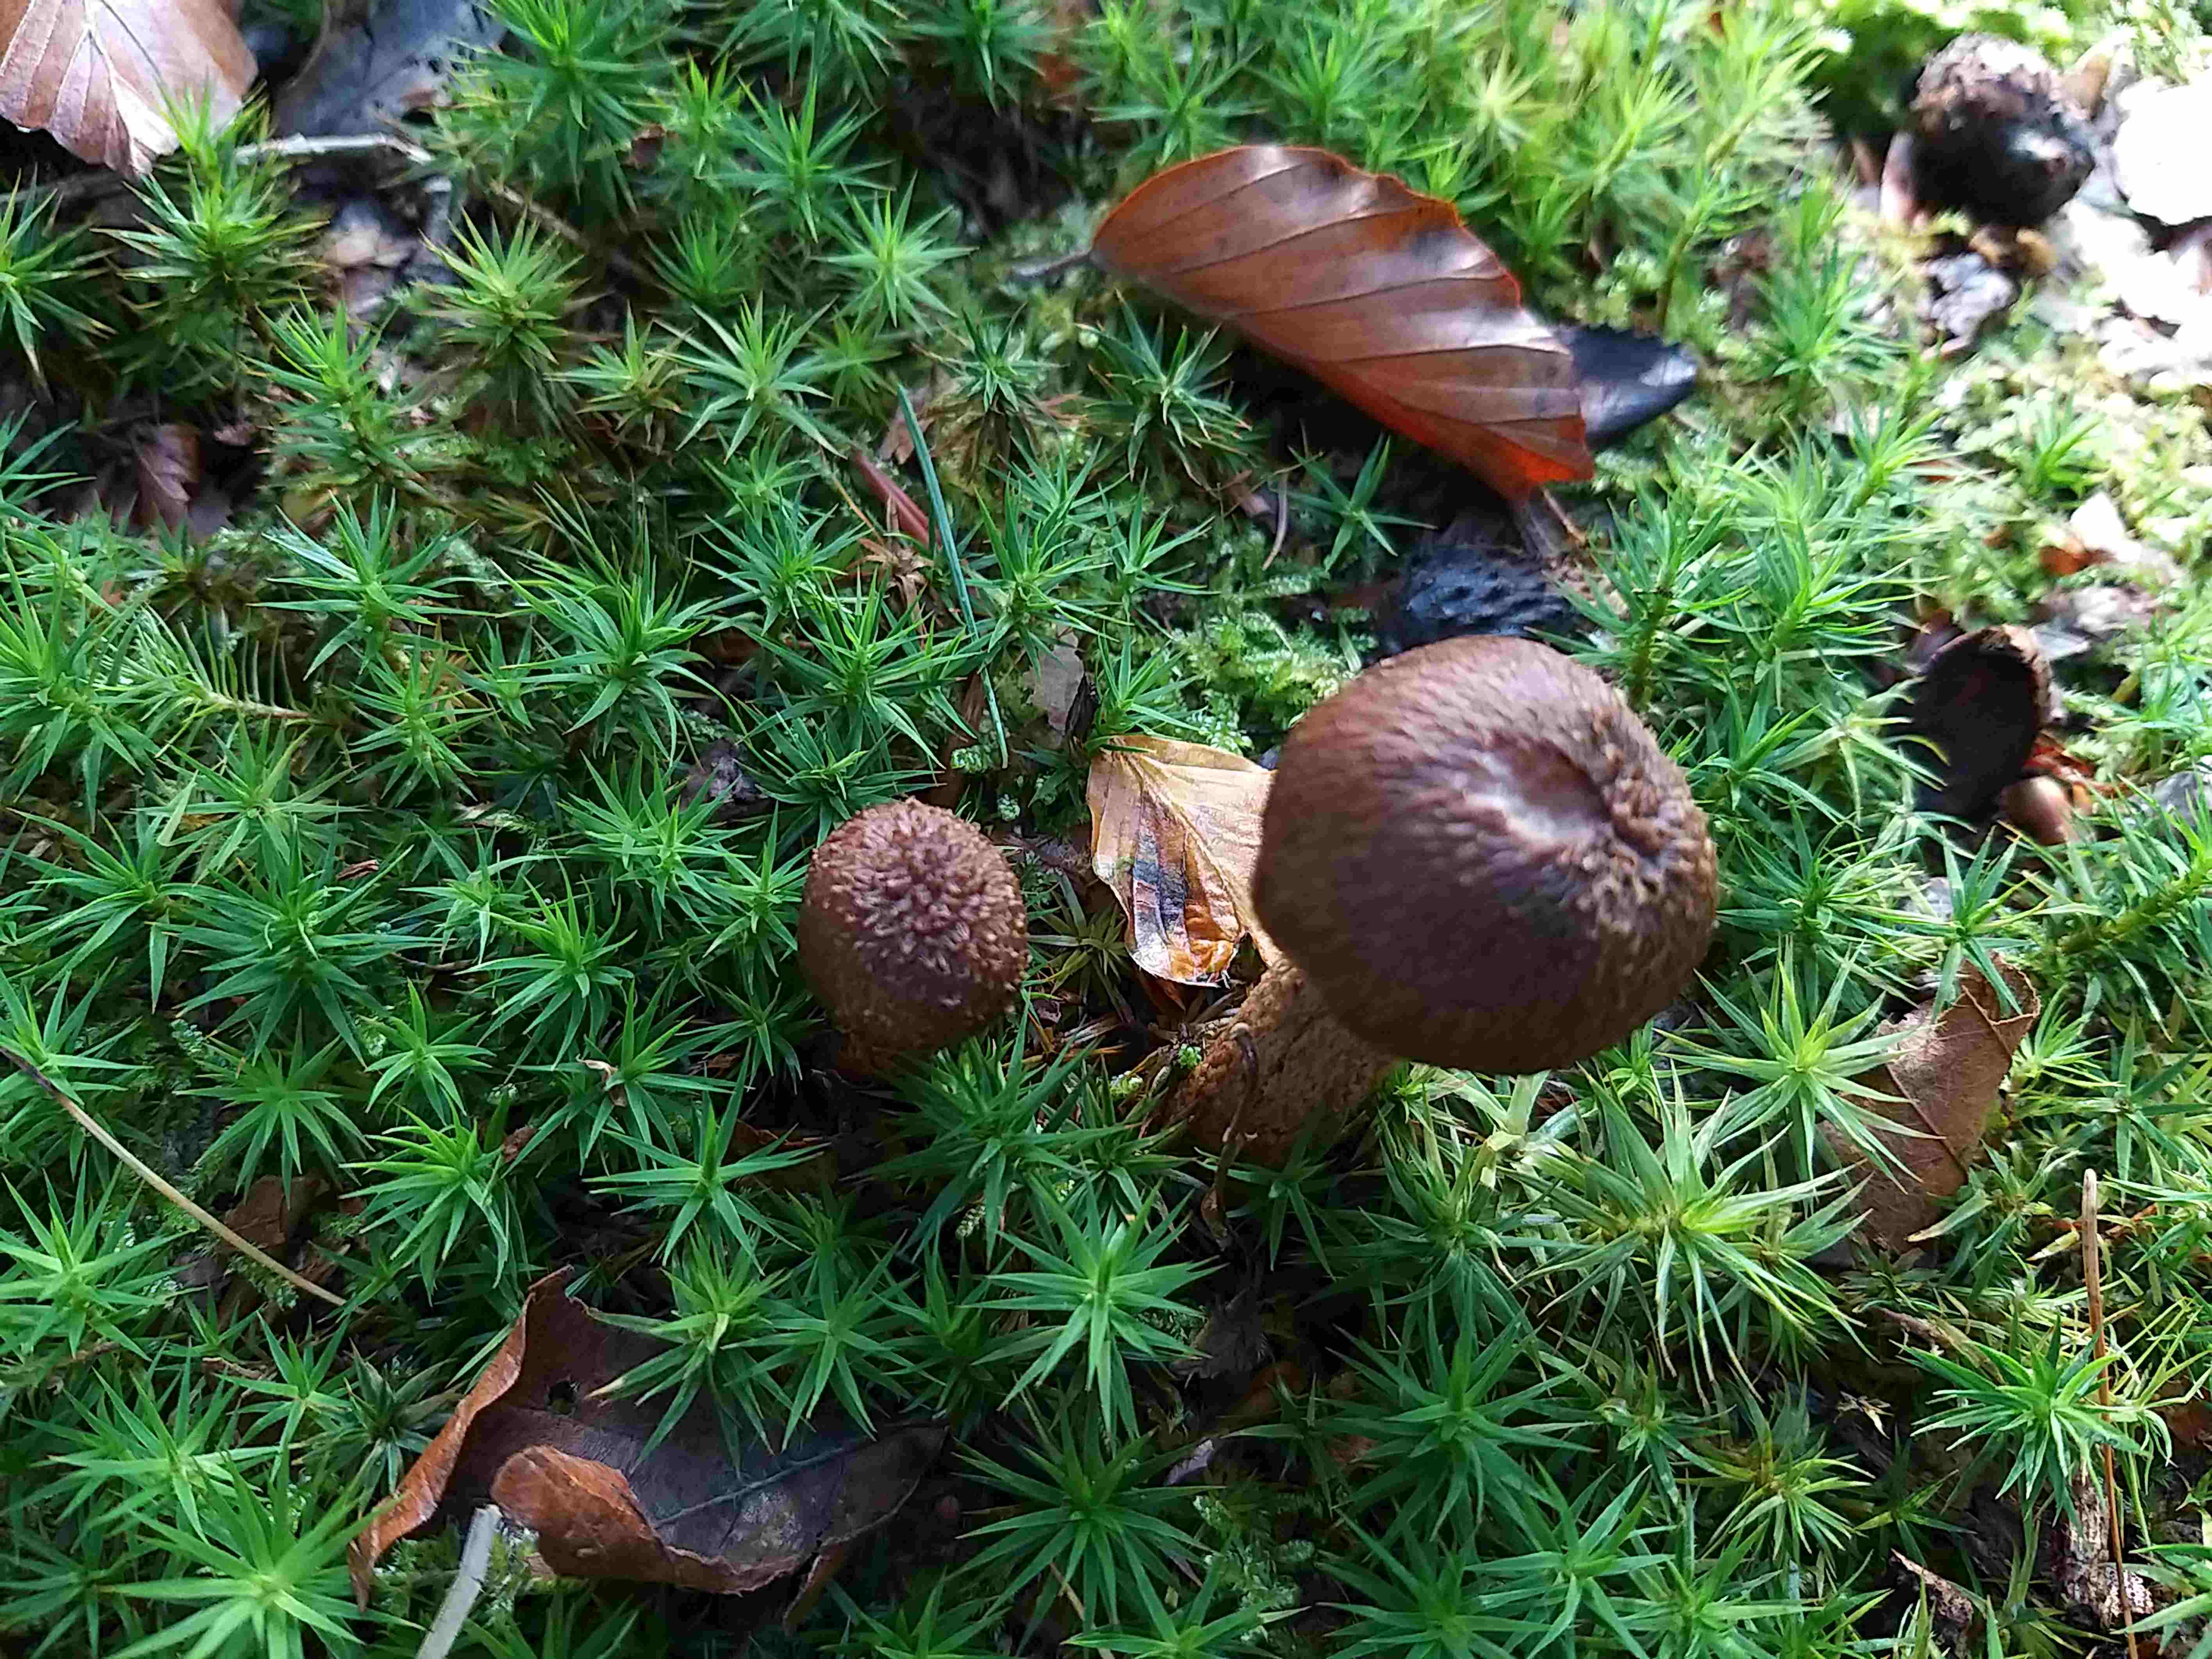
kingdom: Fungi
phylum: Basidiomycota
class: Agaricomycetes
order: Agaricales
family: Inocybaceae
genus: Inocybe
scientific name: Inocybe
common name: trævlhat
